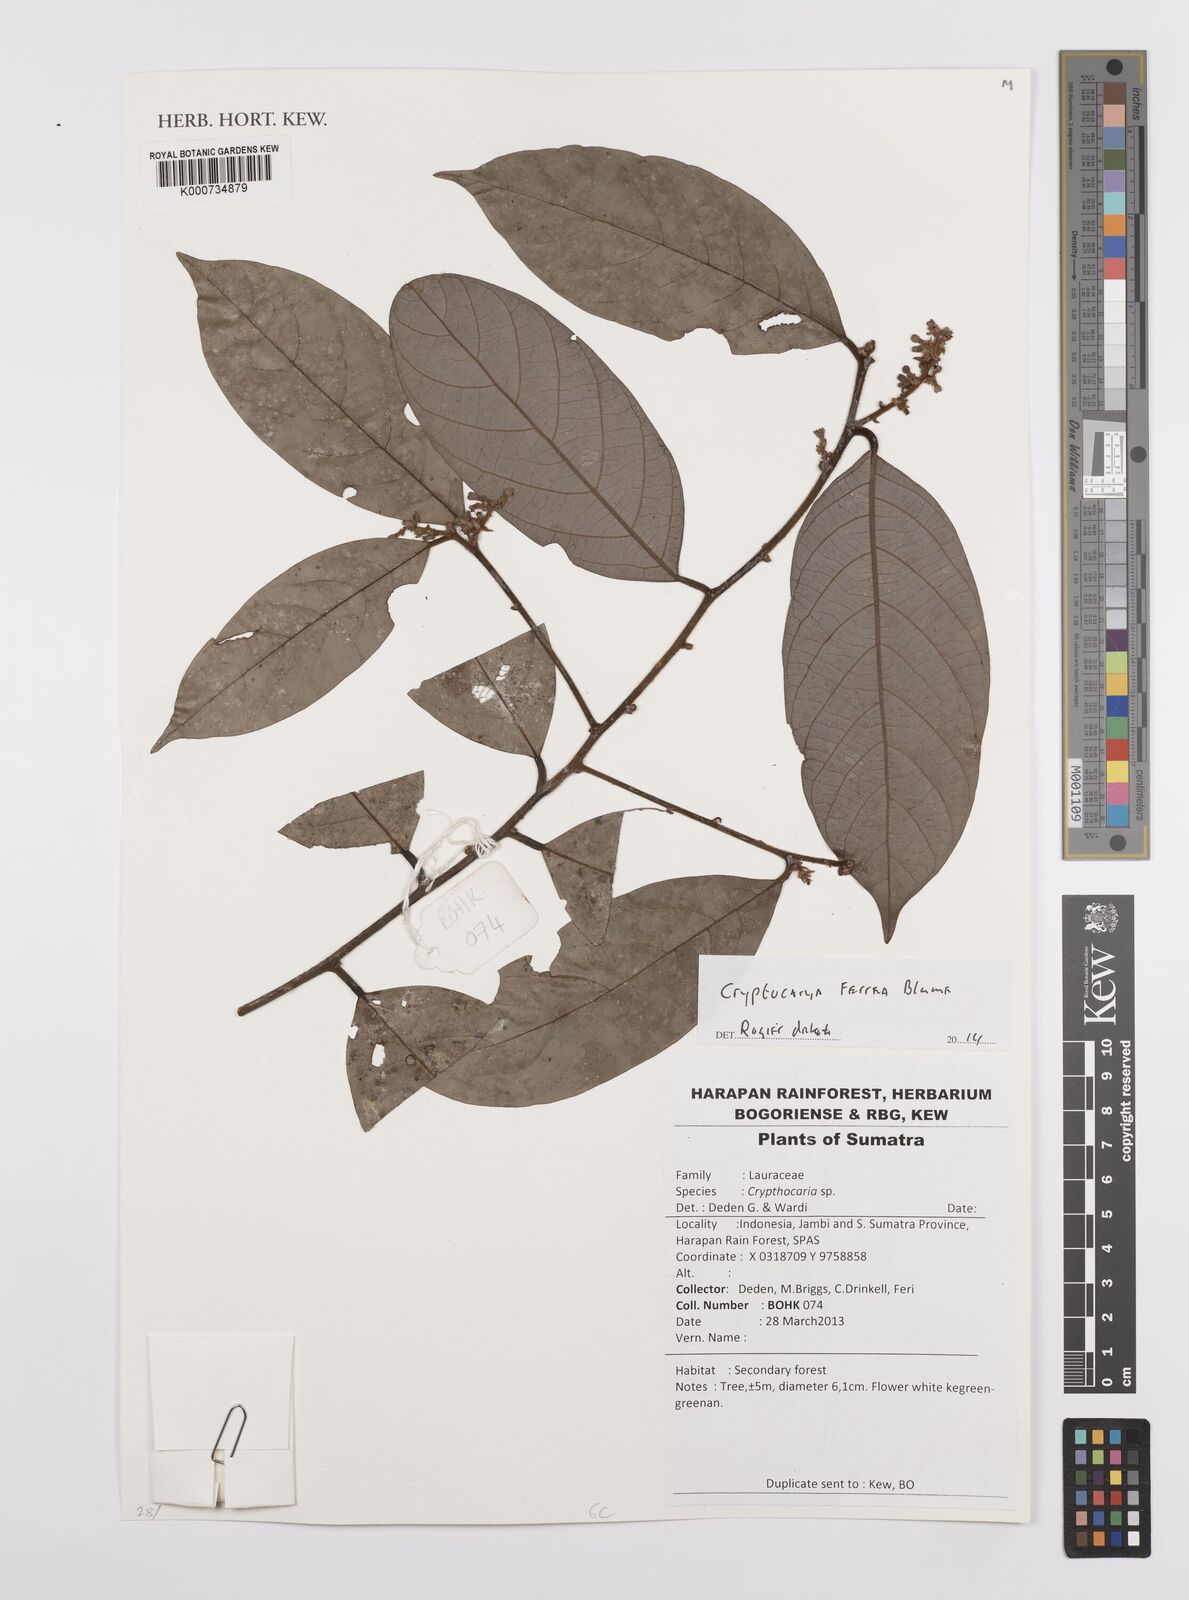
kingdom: Plantae
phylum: Tracheophyta
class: Magnoliopsida
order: Laurales
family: Lauraceae
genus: Cryptocarya
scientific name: Cryptocarya ferrea
